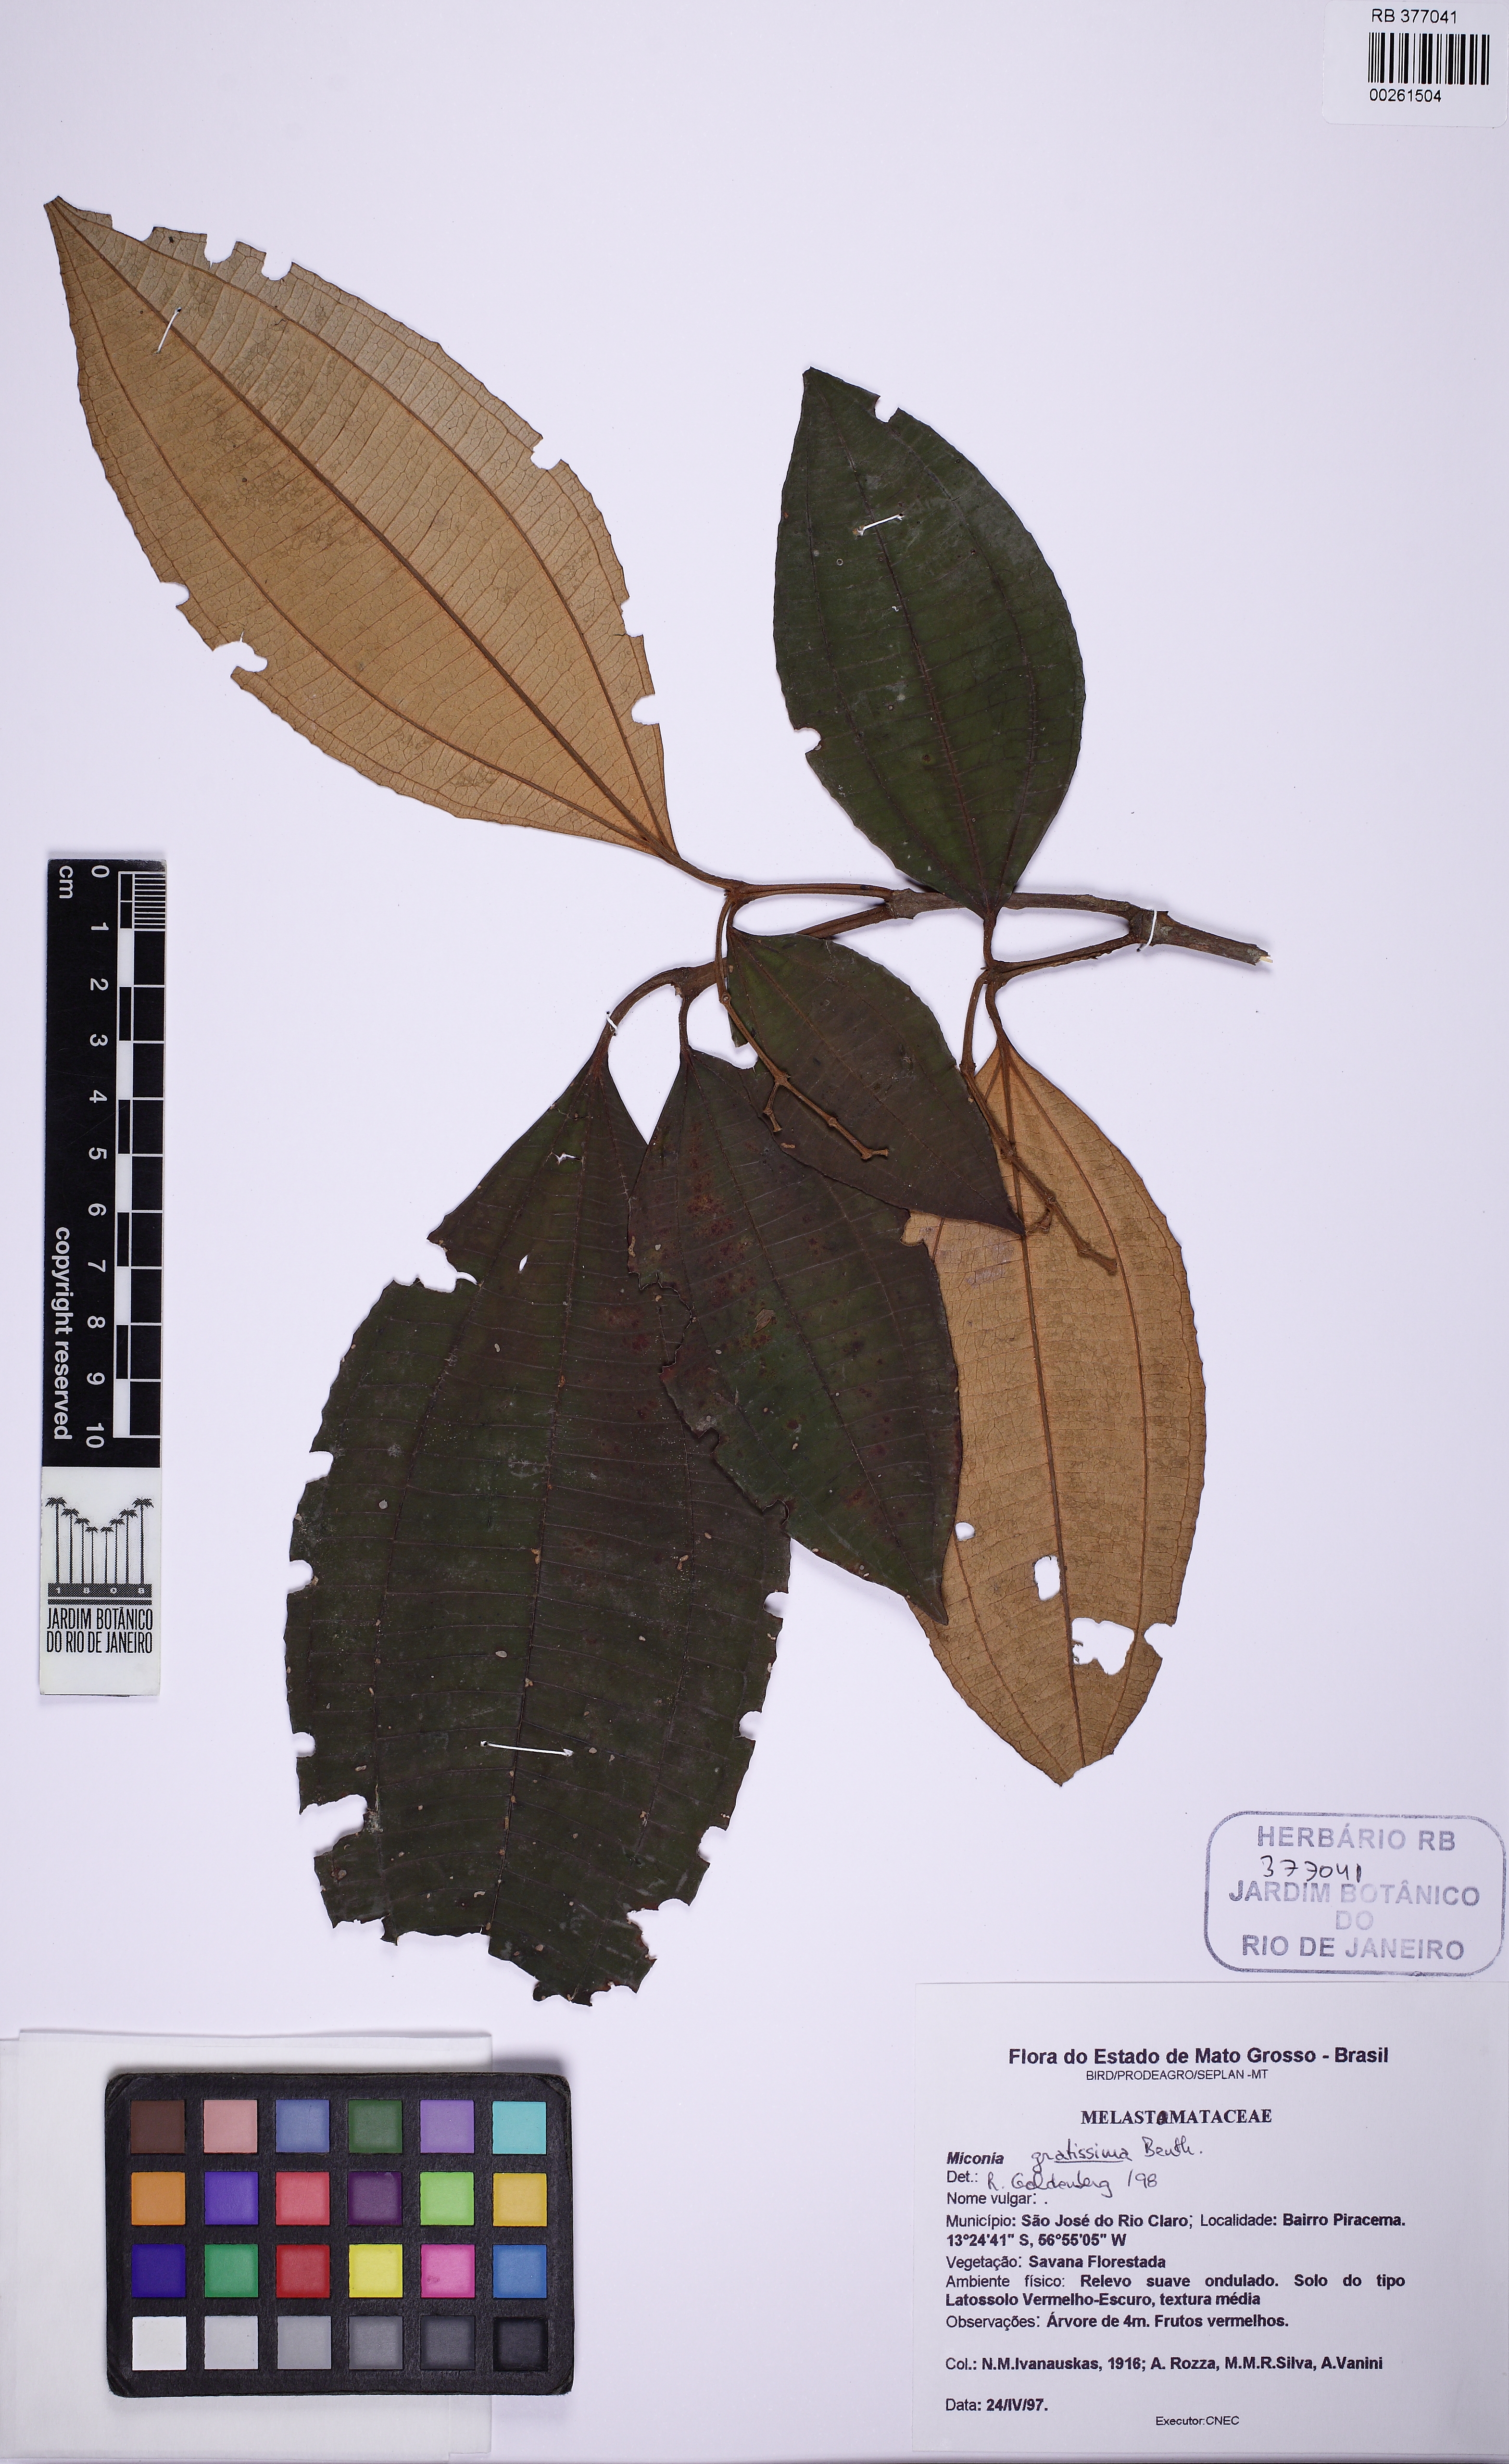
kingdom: Plantae
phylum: Tracheophyta
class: Magnoliopsida
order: Myrtales
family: Melastomataceae
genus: Miconia
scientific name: Miconia gratissima
